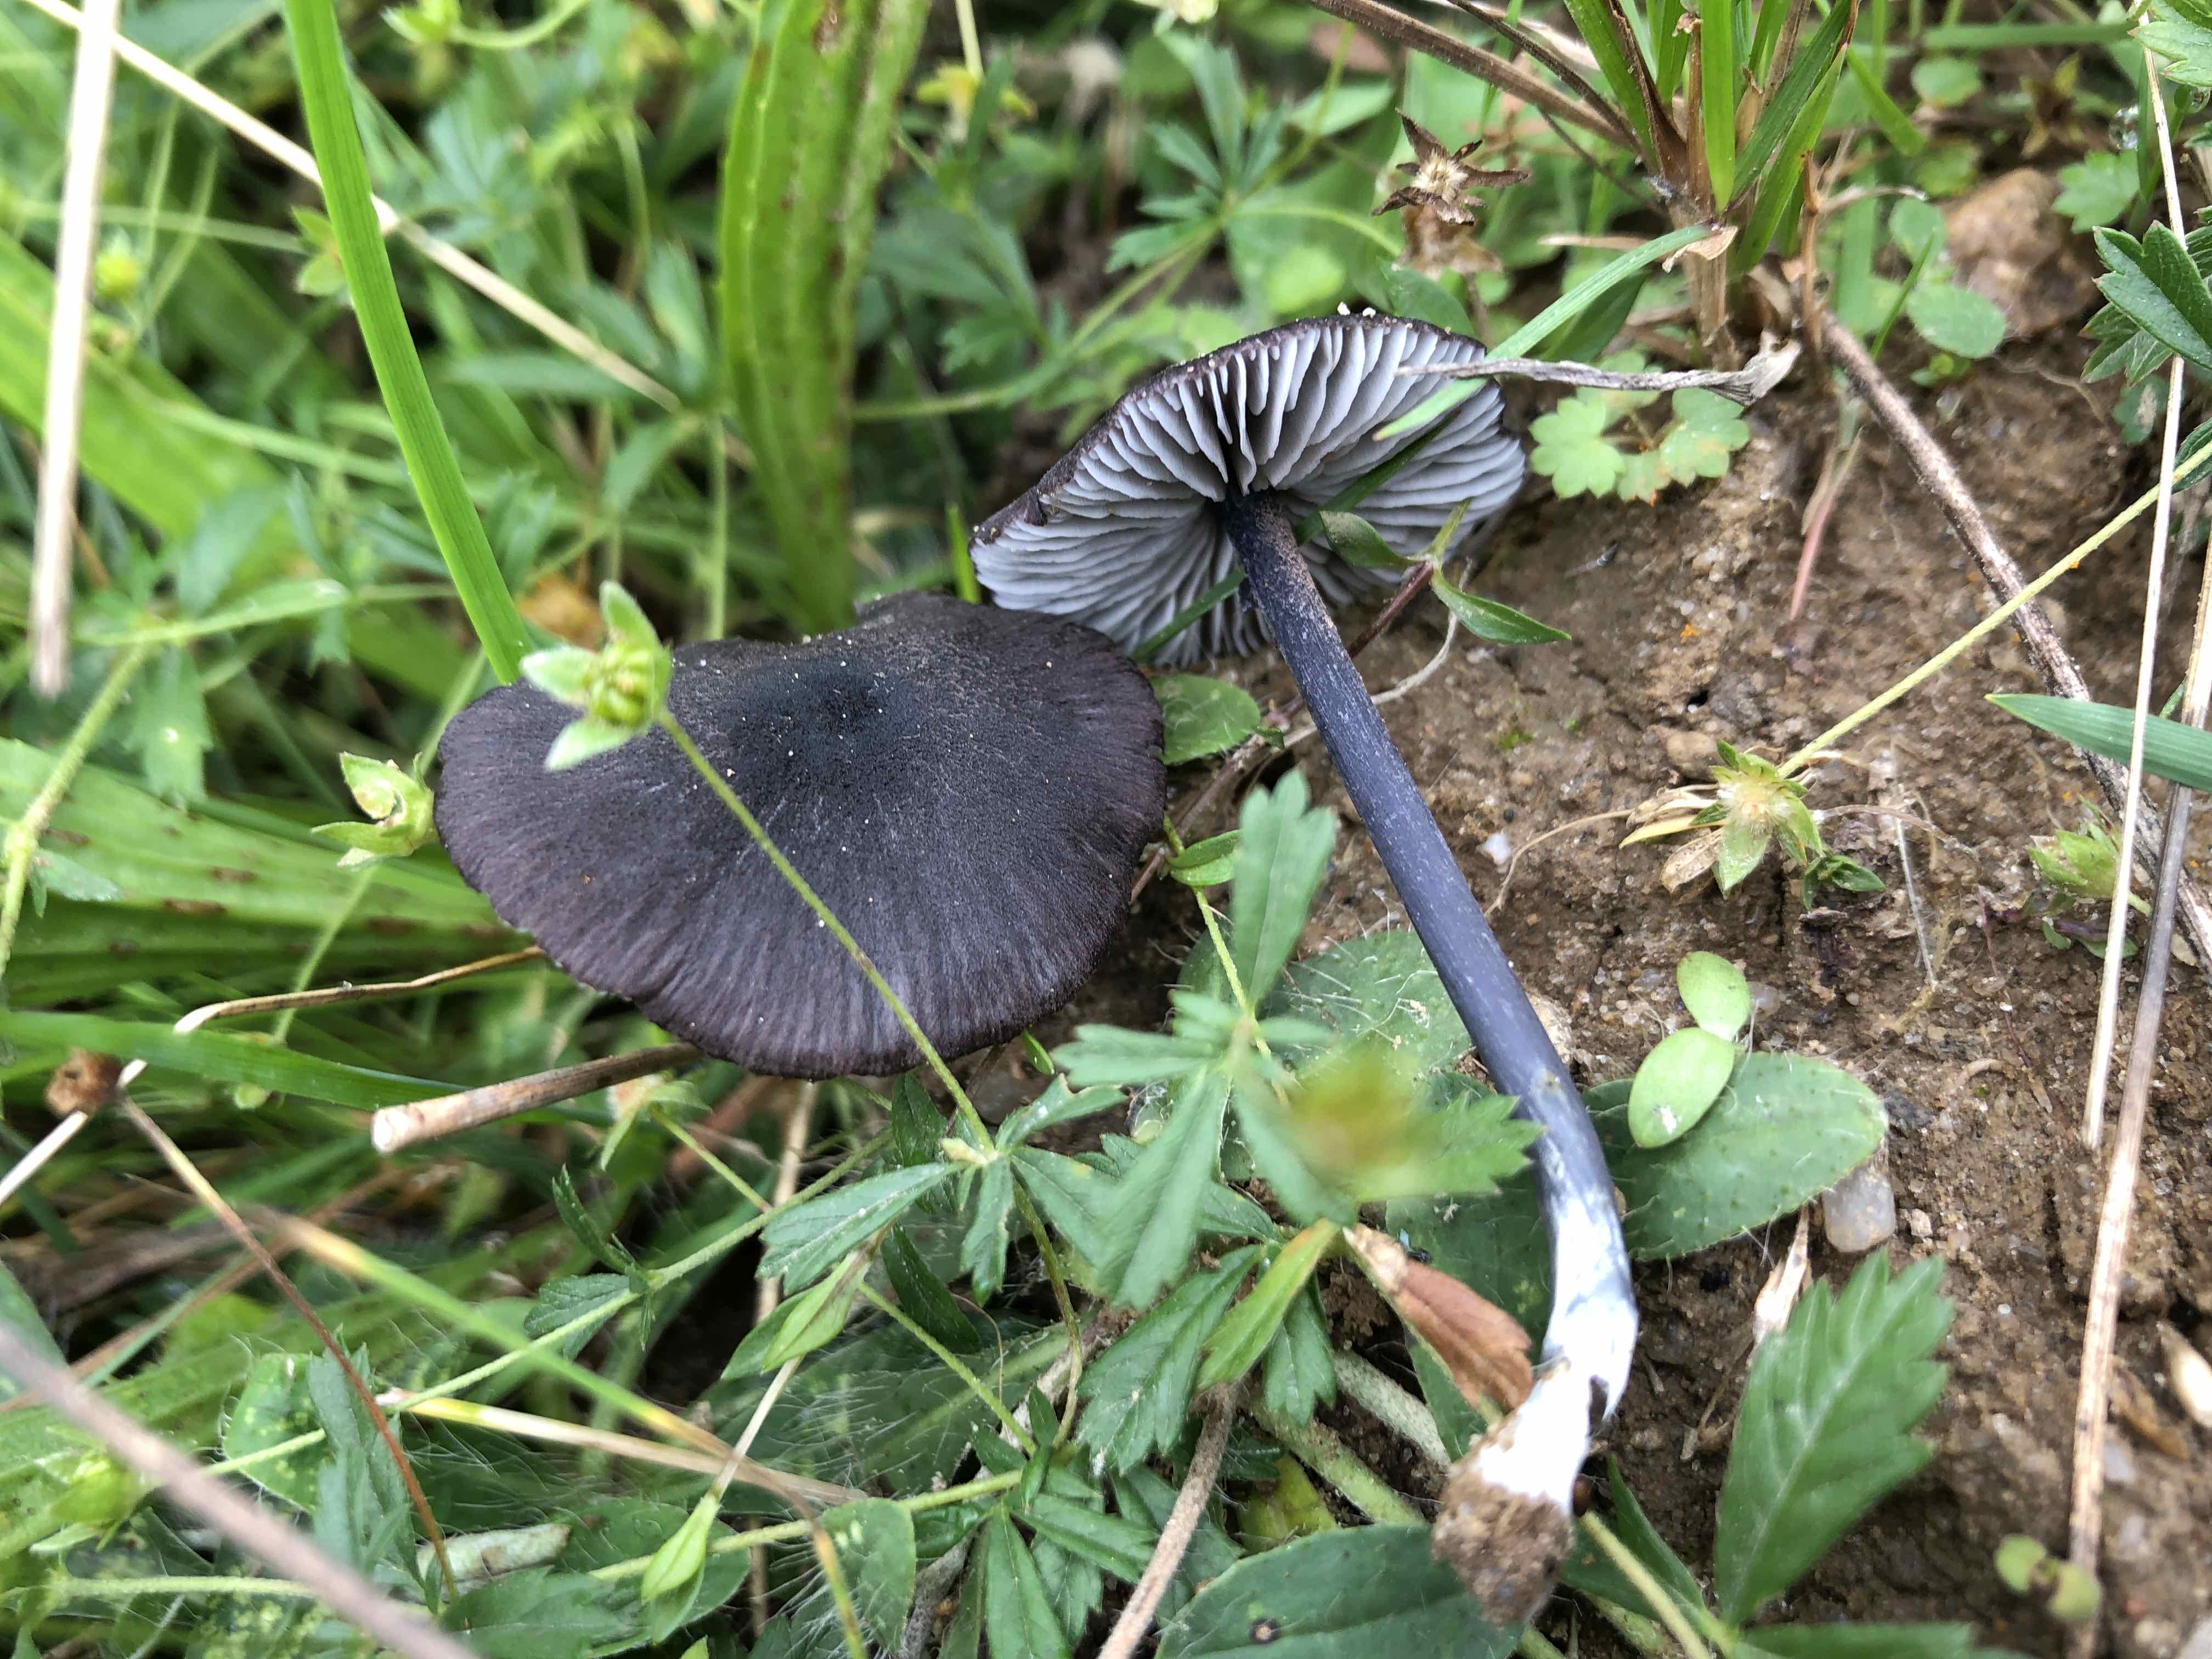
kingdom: Fungi
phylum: Basidiomycota
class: Agaricomycetes
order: Agaricales
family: Entolomataceae
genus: Entoloma
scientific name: Entoloma chalybeum
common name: blåbladet rødblad
